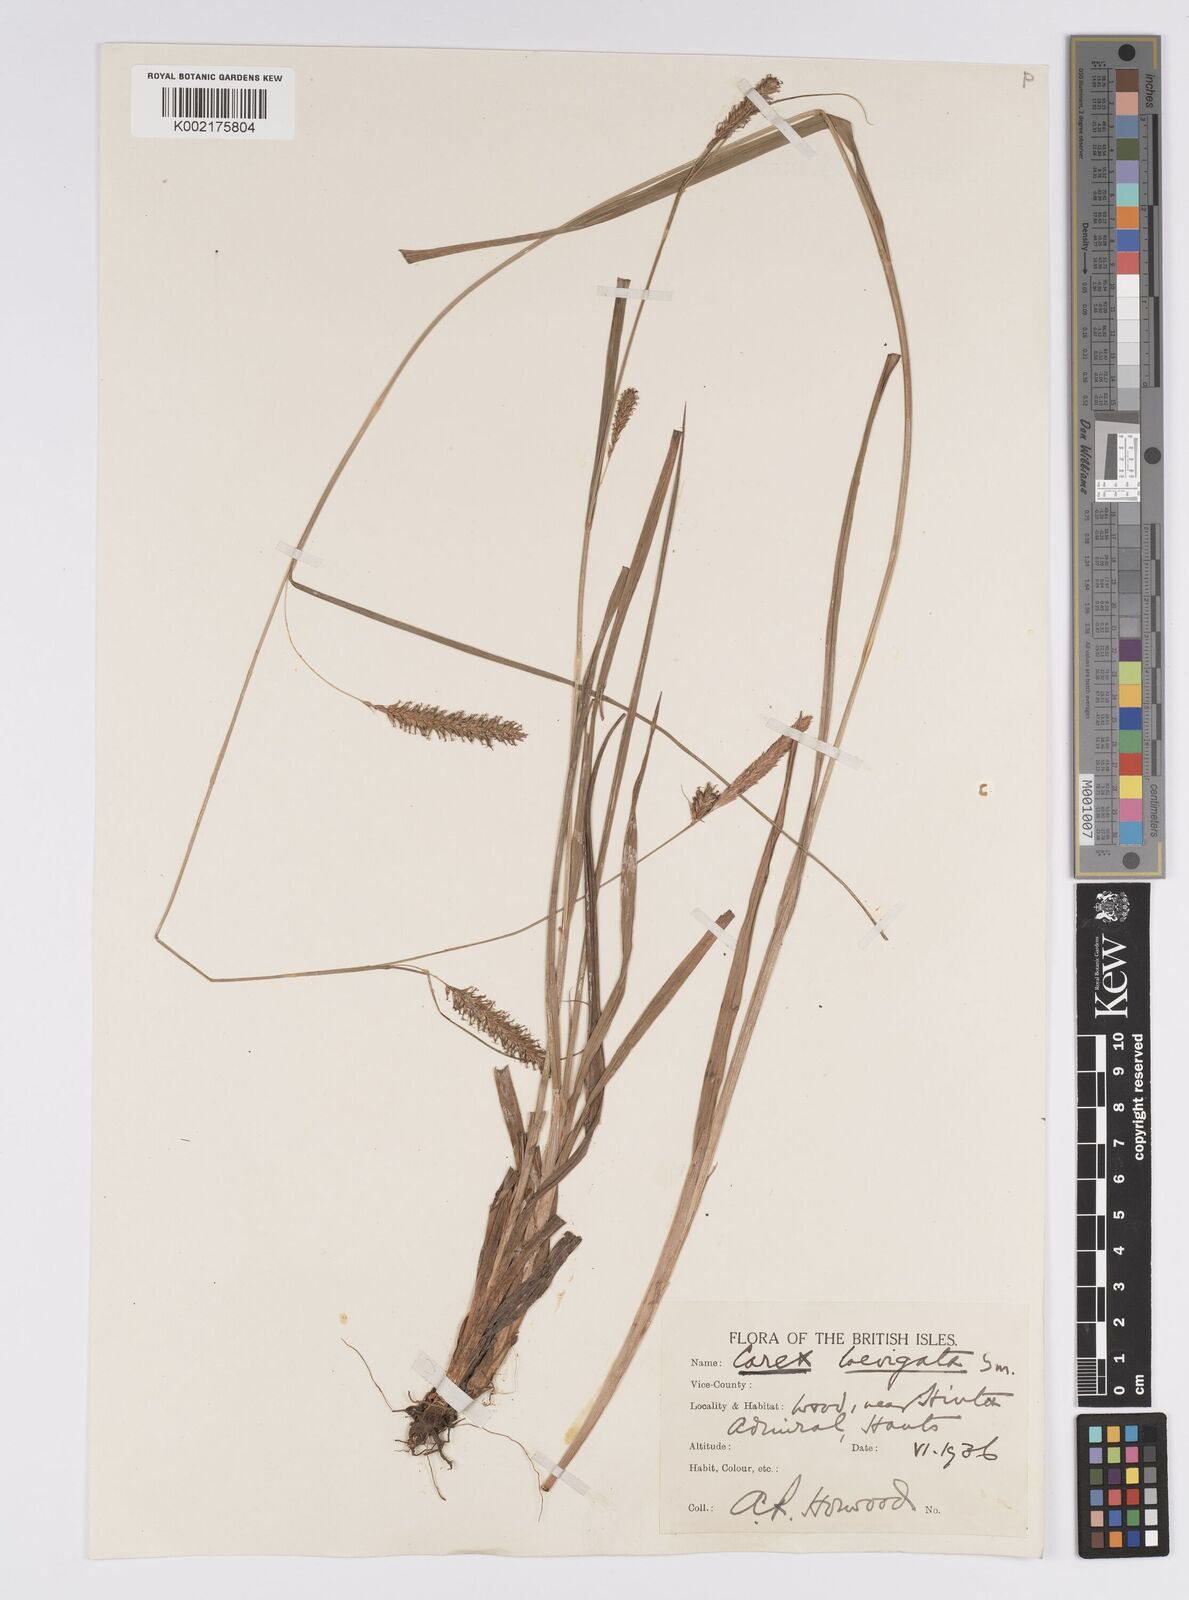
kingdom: Plantae
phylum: Tracheophyta
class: Liliopsida
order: Poales
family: Cyperaceae
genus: Carex
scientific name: Carex laevigata
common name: Smooth-stalked sedge
